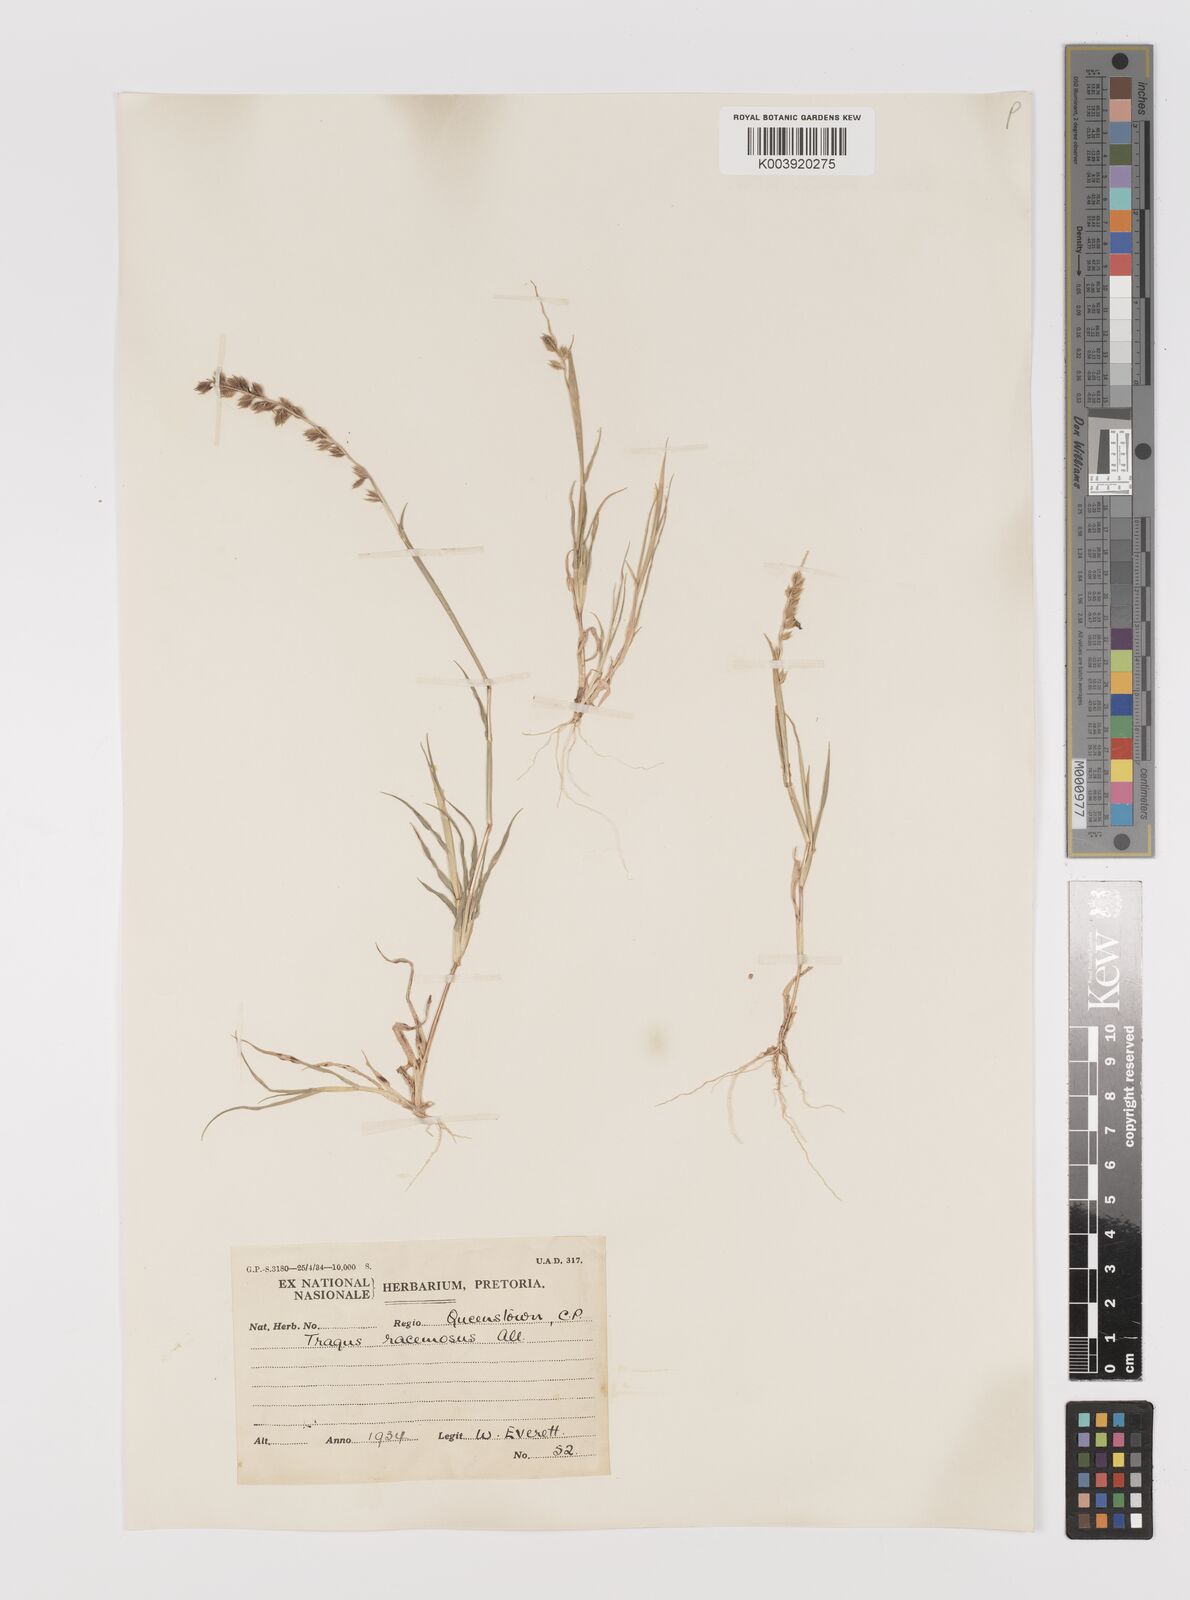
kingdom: Plantae
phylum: Tracheophyta
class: Liliopsida
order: Poales
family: Poaceae
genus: Tragus
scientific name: Tragus racemosus
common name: European bur-grass
